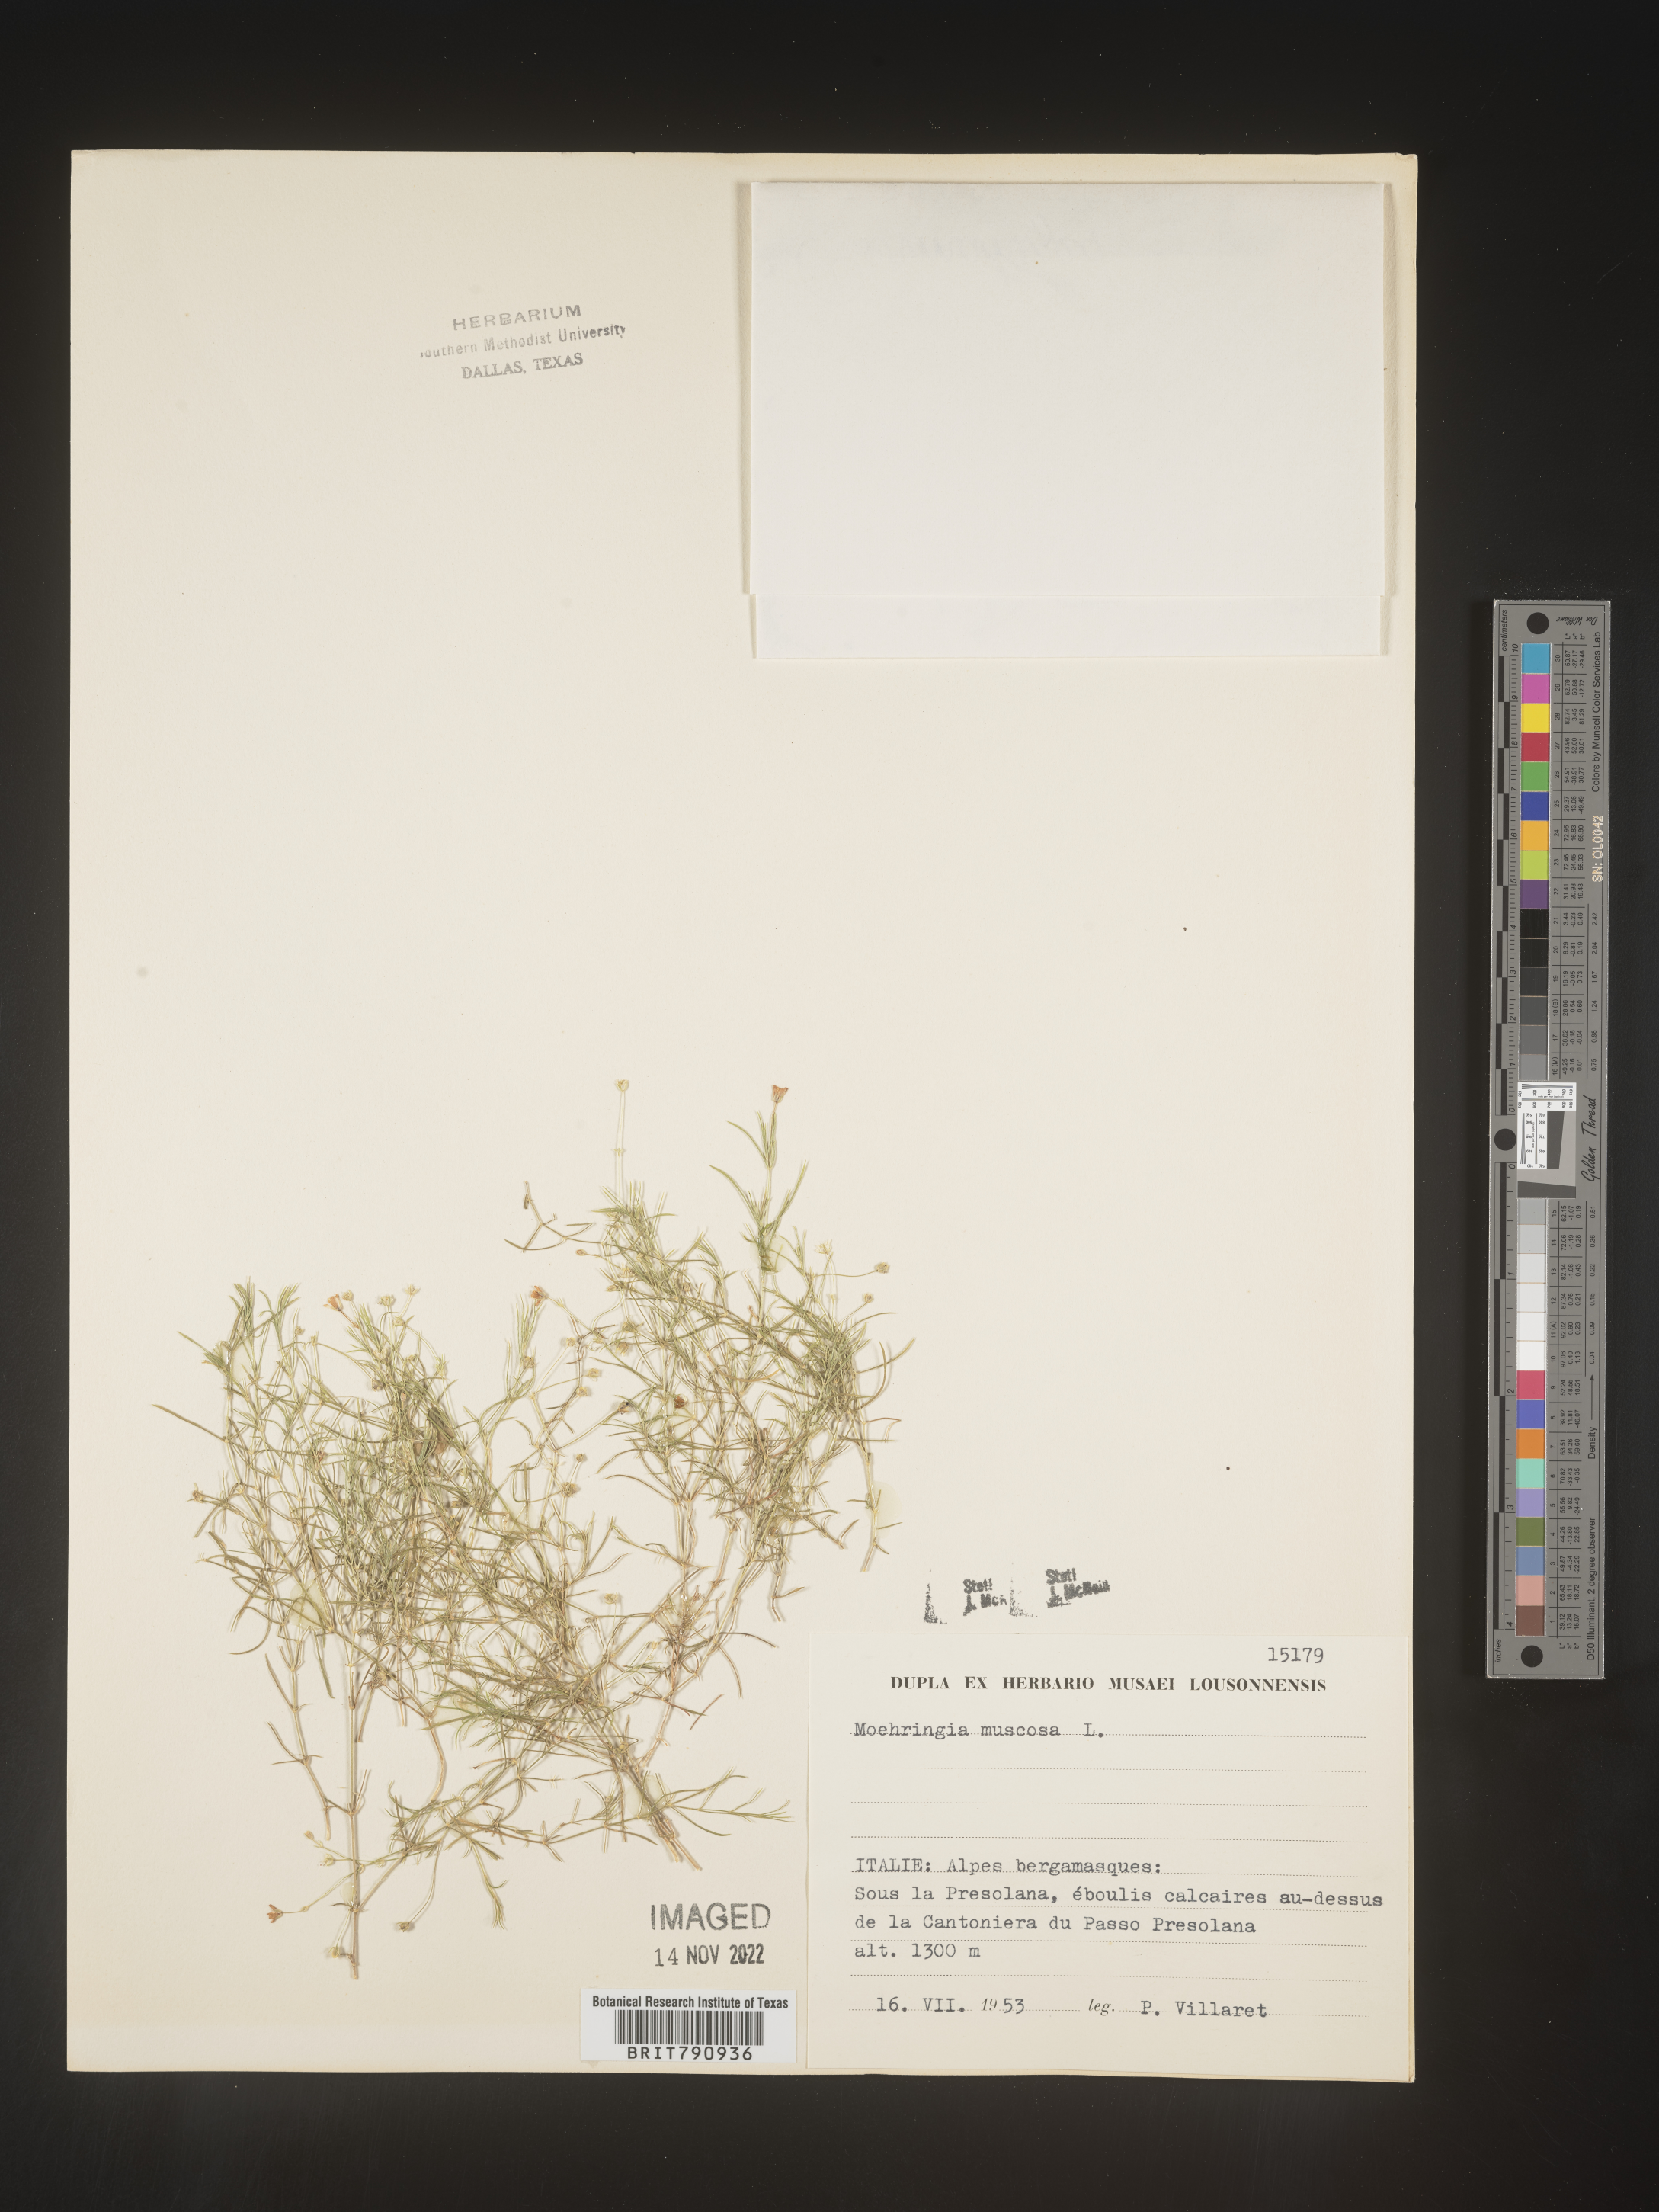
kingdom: Plantae
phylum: Tracheophyta
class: Magnoliopsida
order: Caryophyllales
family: Caryophyllaceae
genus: Moehringia
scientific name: Moehringia
